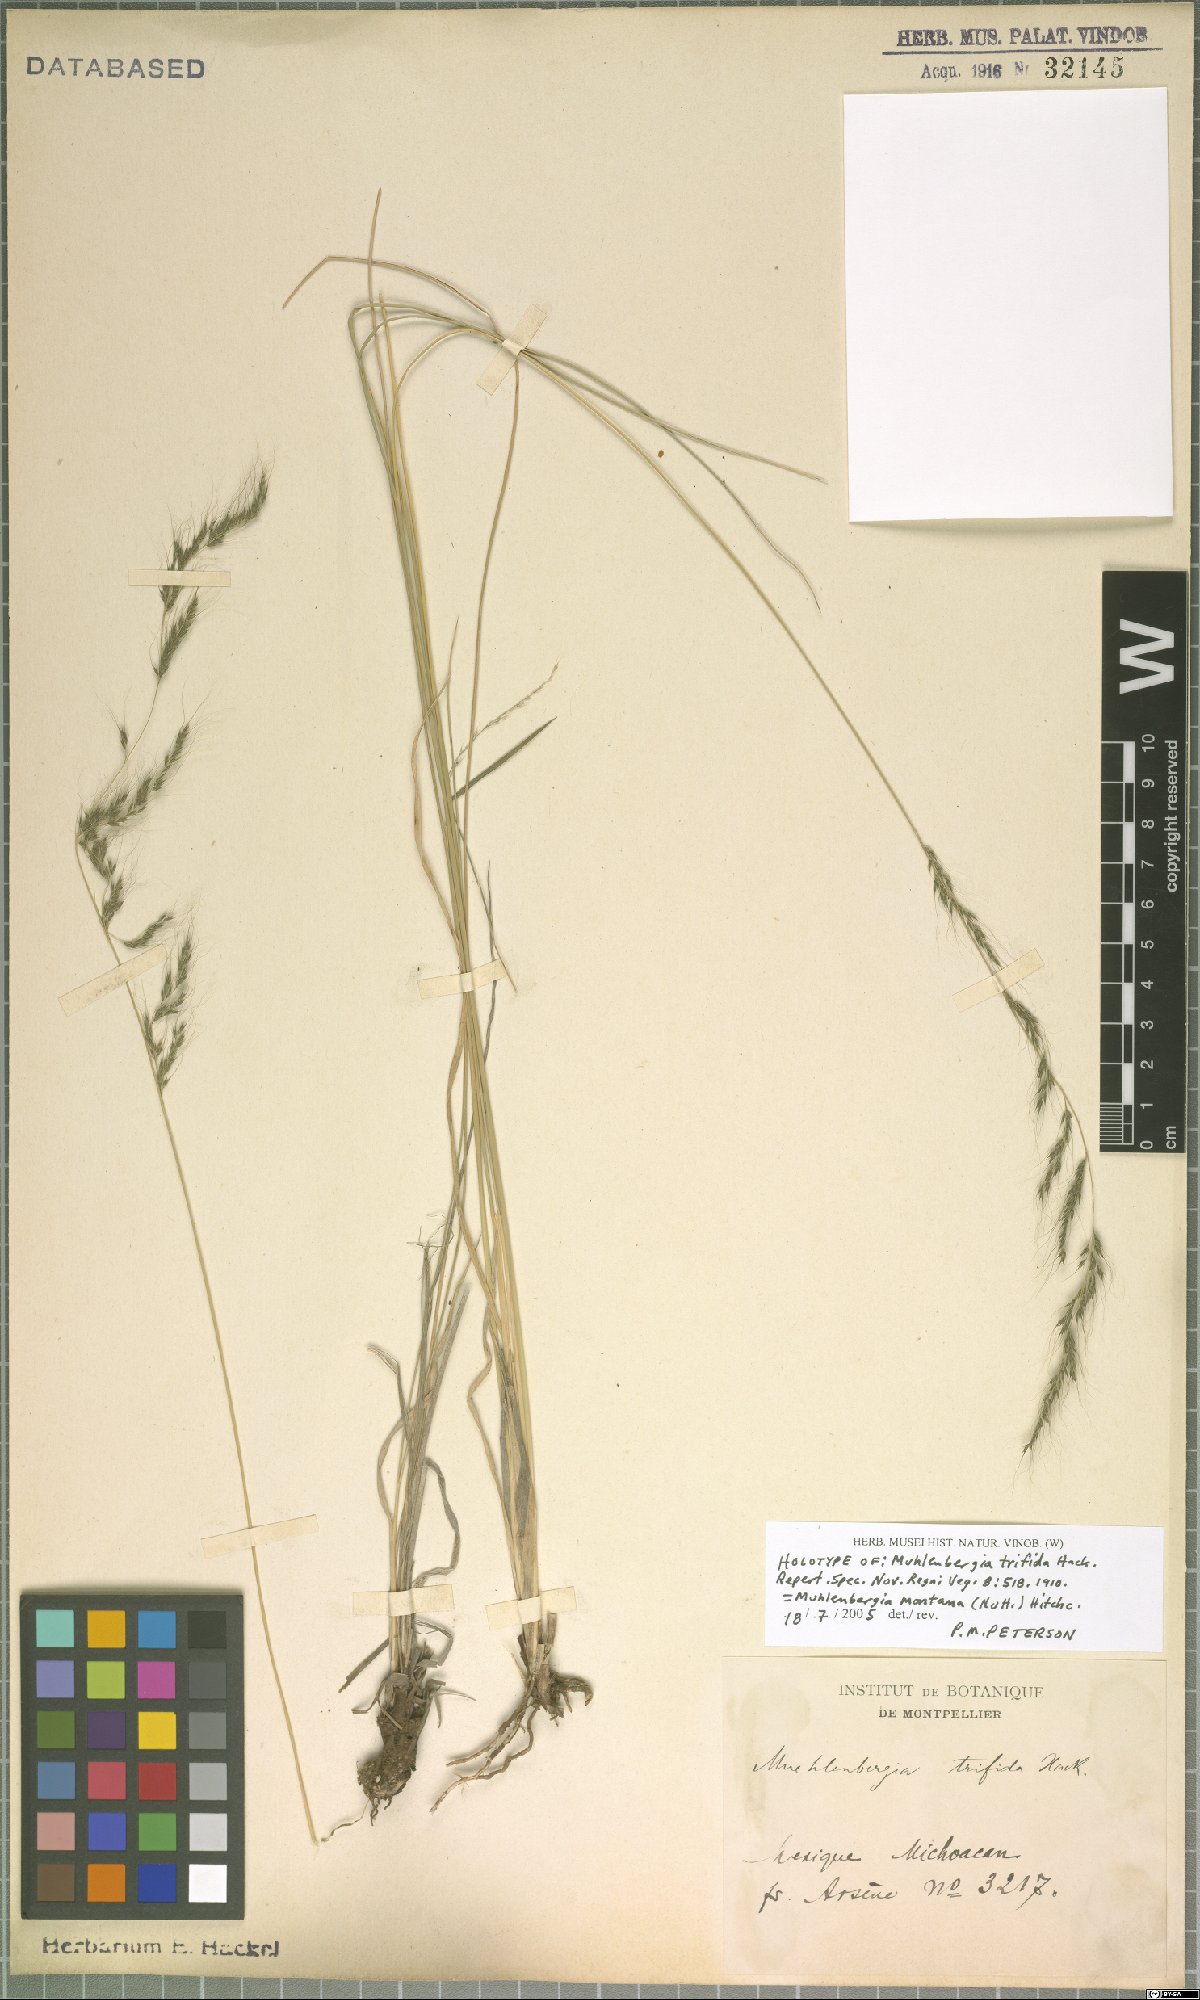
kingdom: Plantae
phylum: Tracheophyta
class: Liliopsida
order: Poales
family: Poaceae
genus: Muhlenbergia
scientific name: Muhlenbergia montana
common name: Mountain muhly
